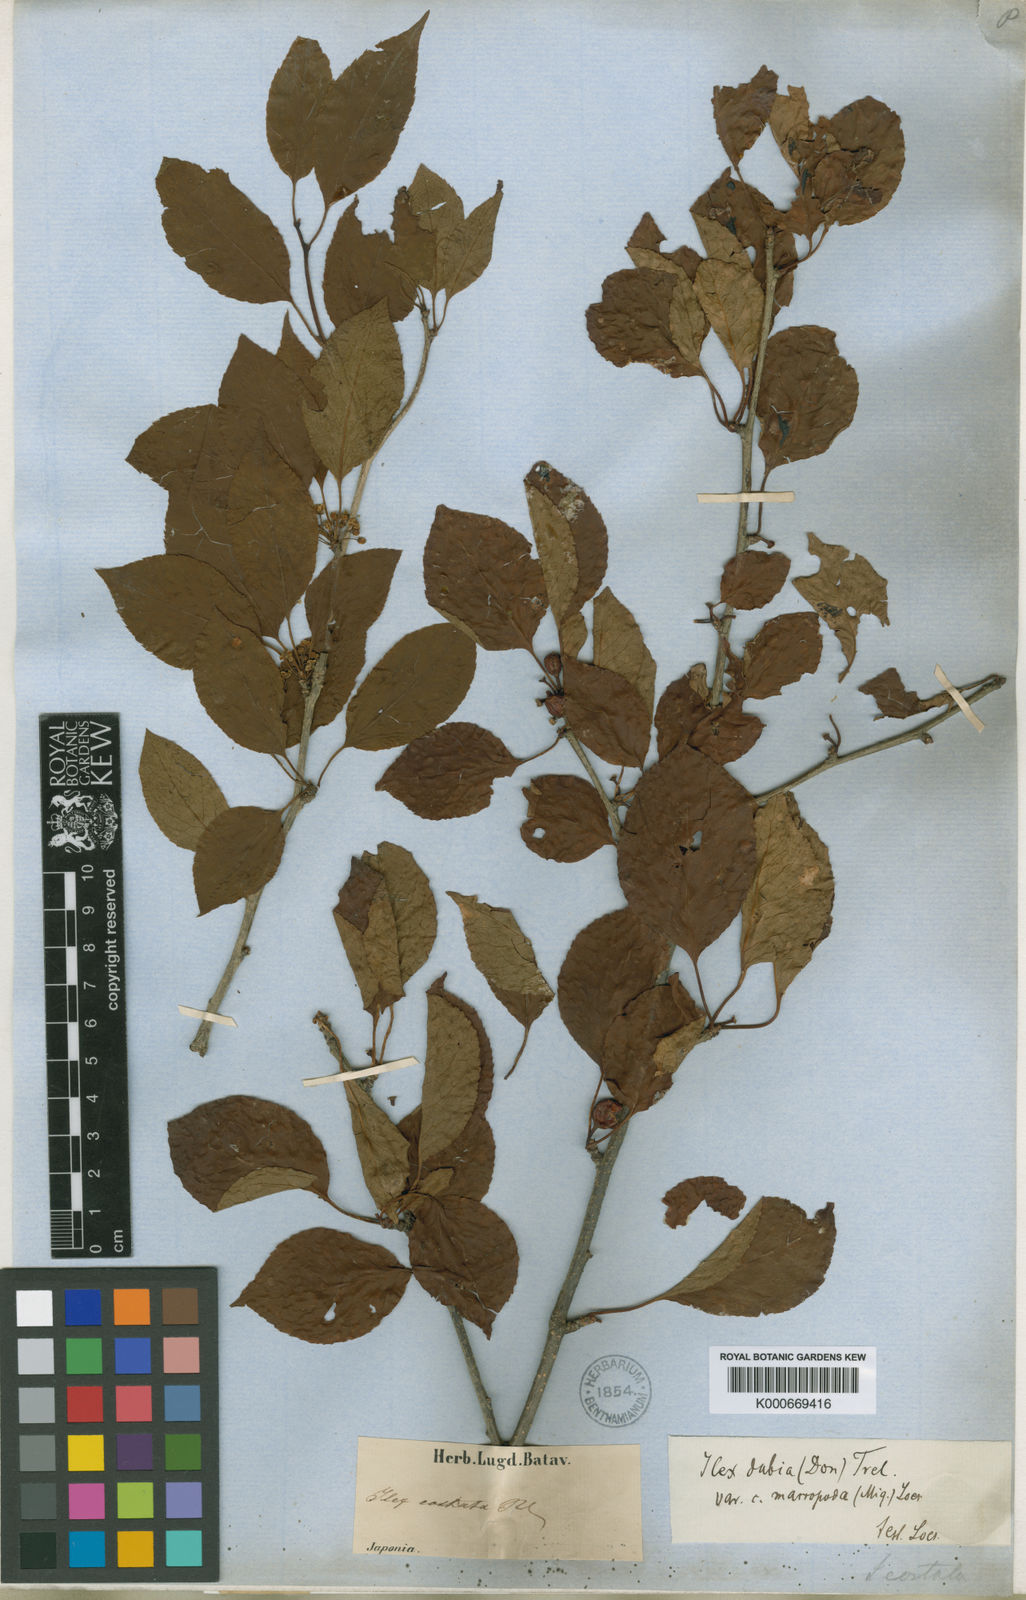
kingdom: Plantae
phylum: Tracheophyta
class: Magnoliopsida
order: Aquifoliales
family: Aquifoliaceae
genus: Ilex
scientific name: Ilex macrocarpa
